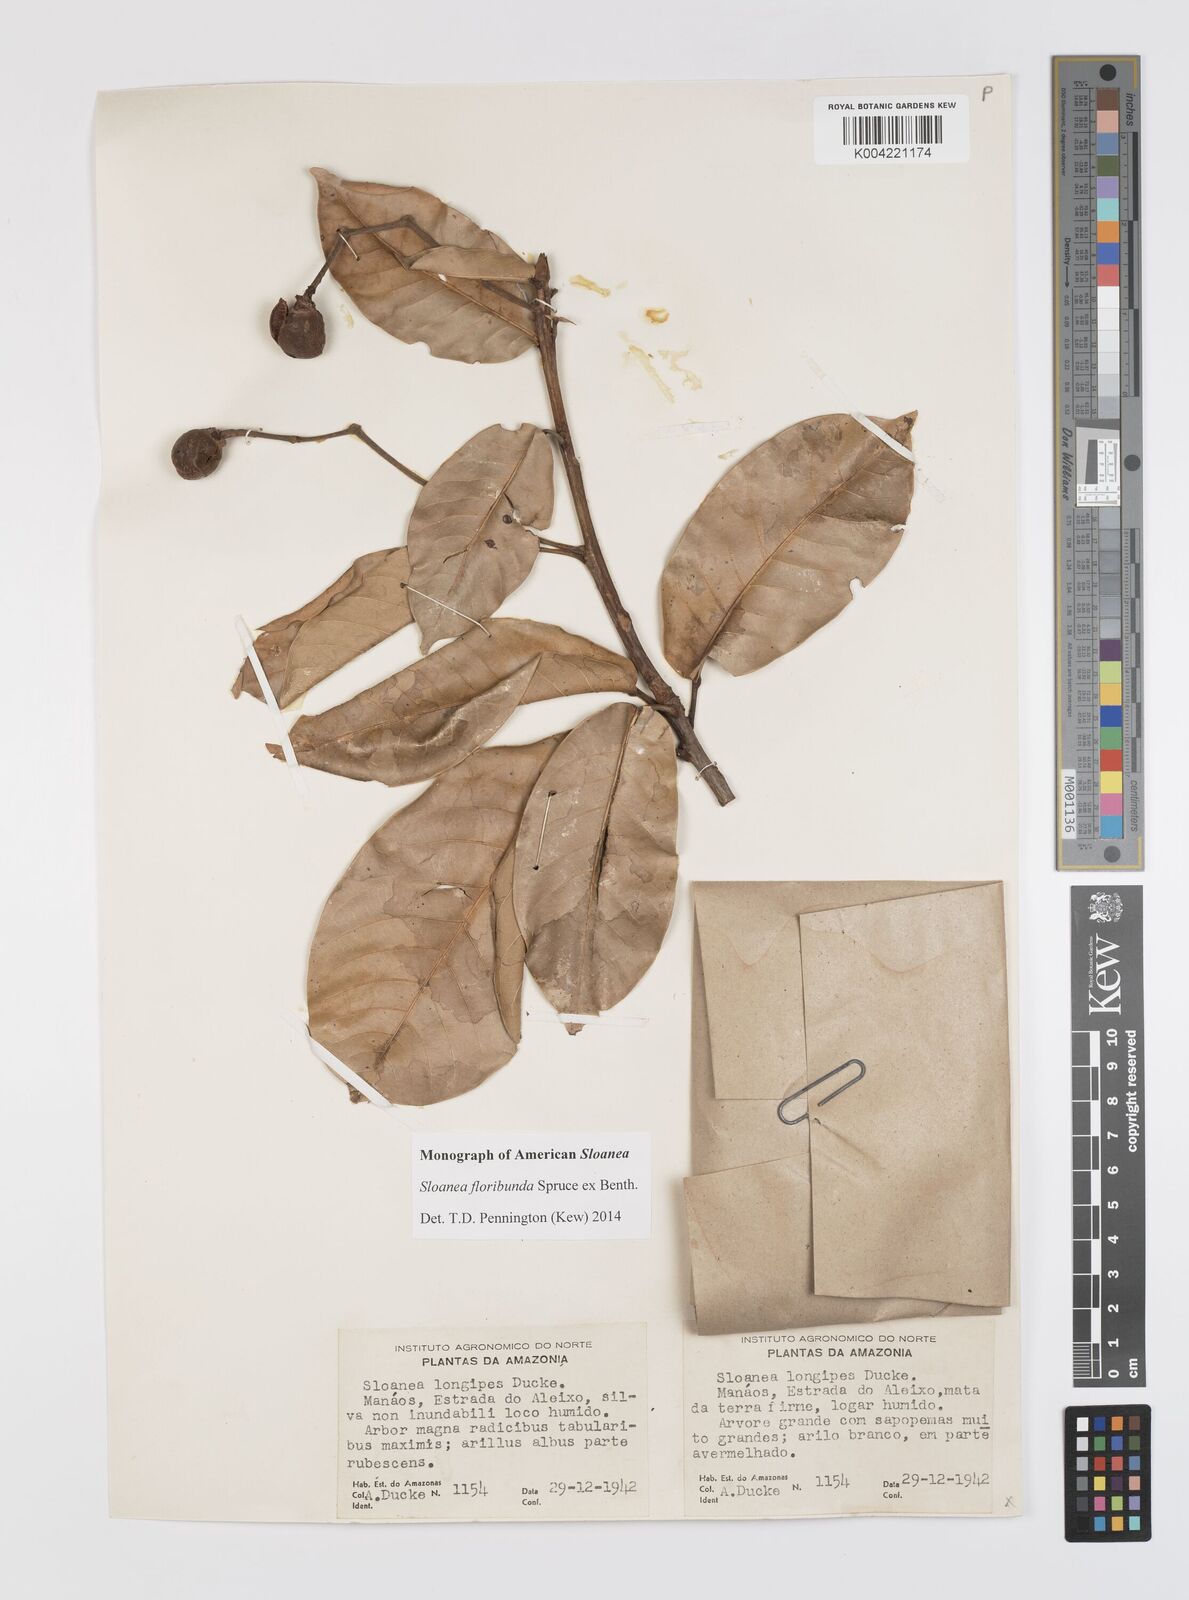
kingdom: Plantae
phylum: Tracheophyta
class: Magnoliopsida
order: Oxalidales
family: Elaeocarpaceae
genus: Sloanea
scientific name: Sloanea floribunda
